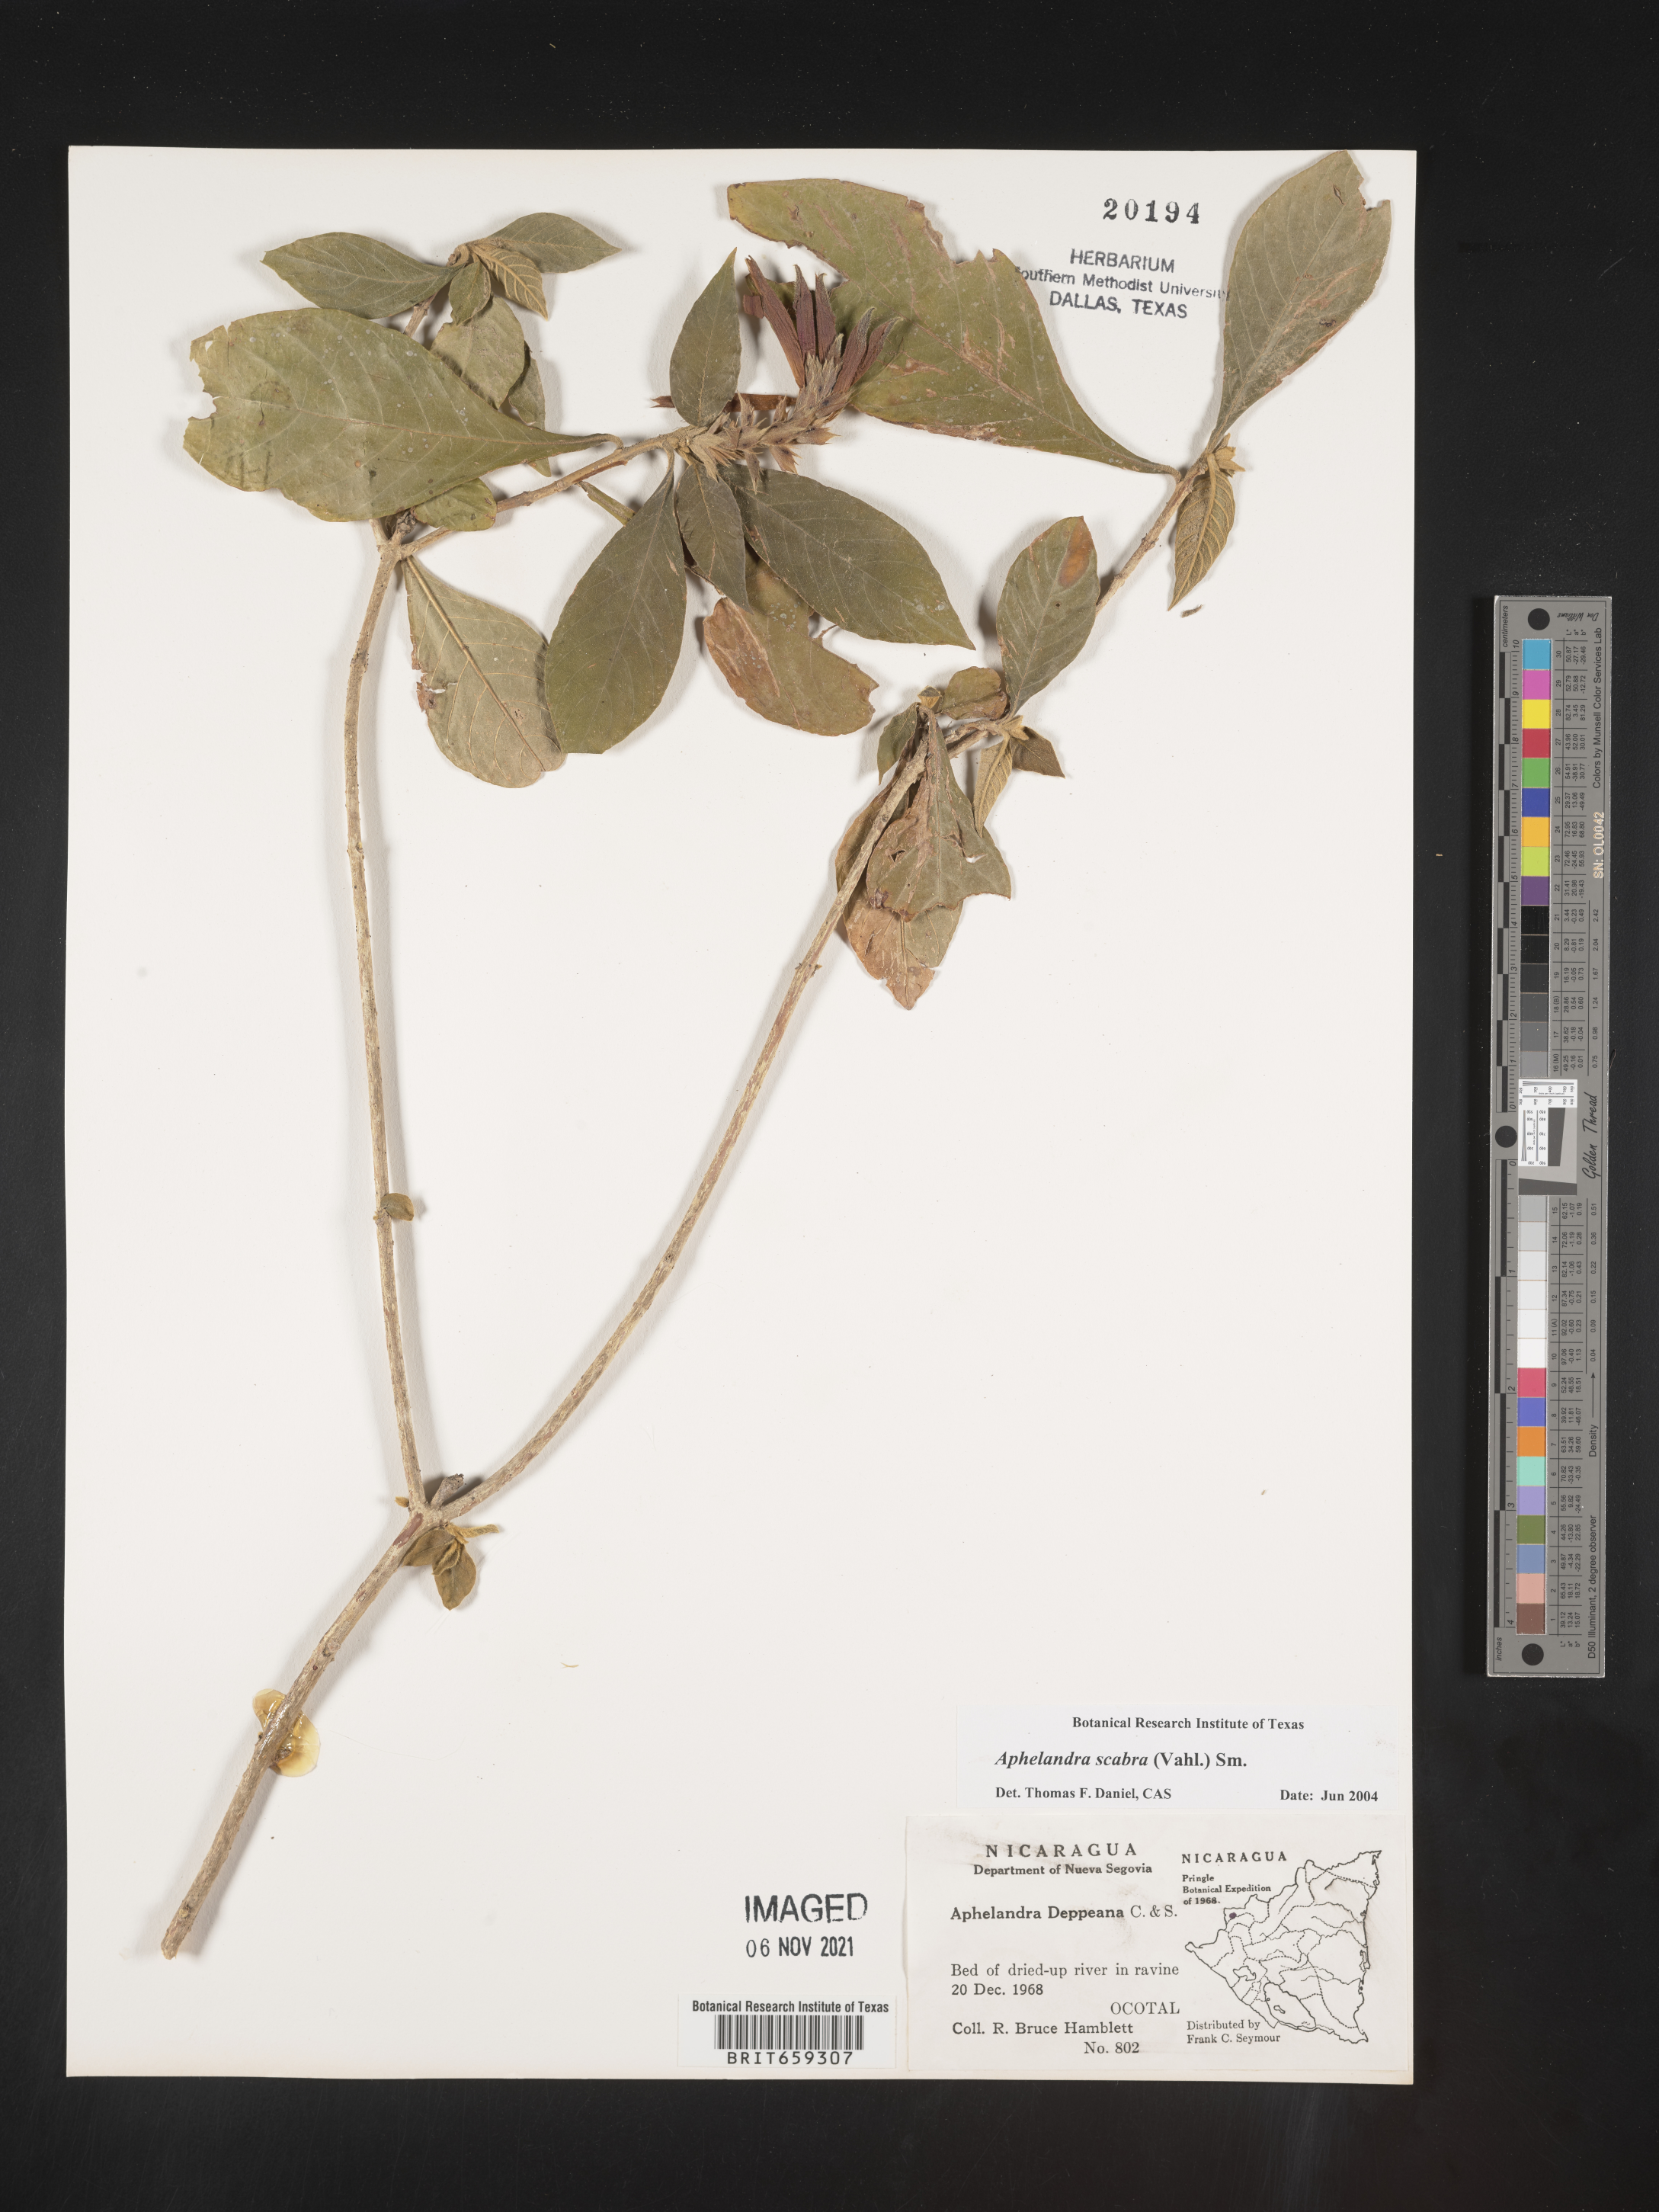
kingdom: Plantae
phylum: Tracheophyta
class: Magnoliopsida
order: Lamiales
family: Acanthaceae
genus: Aphelandra
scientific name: Aphelandra
